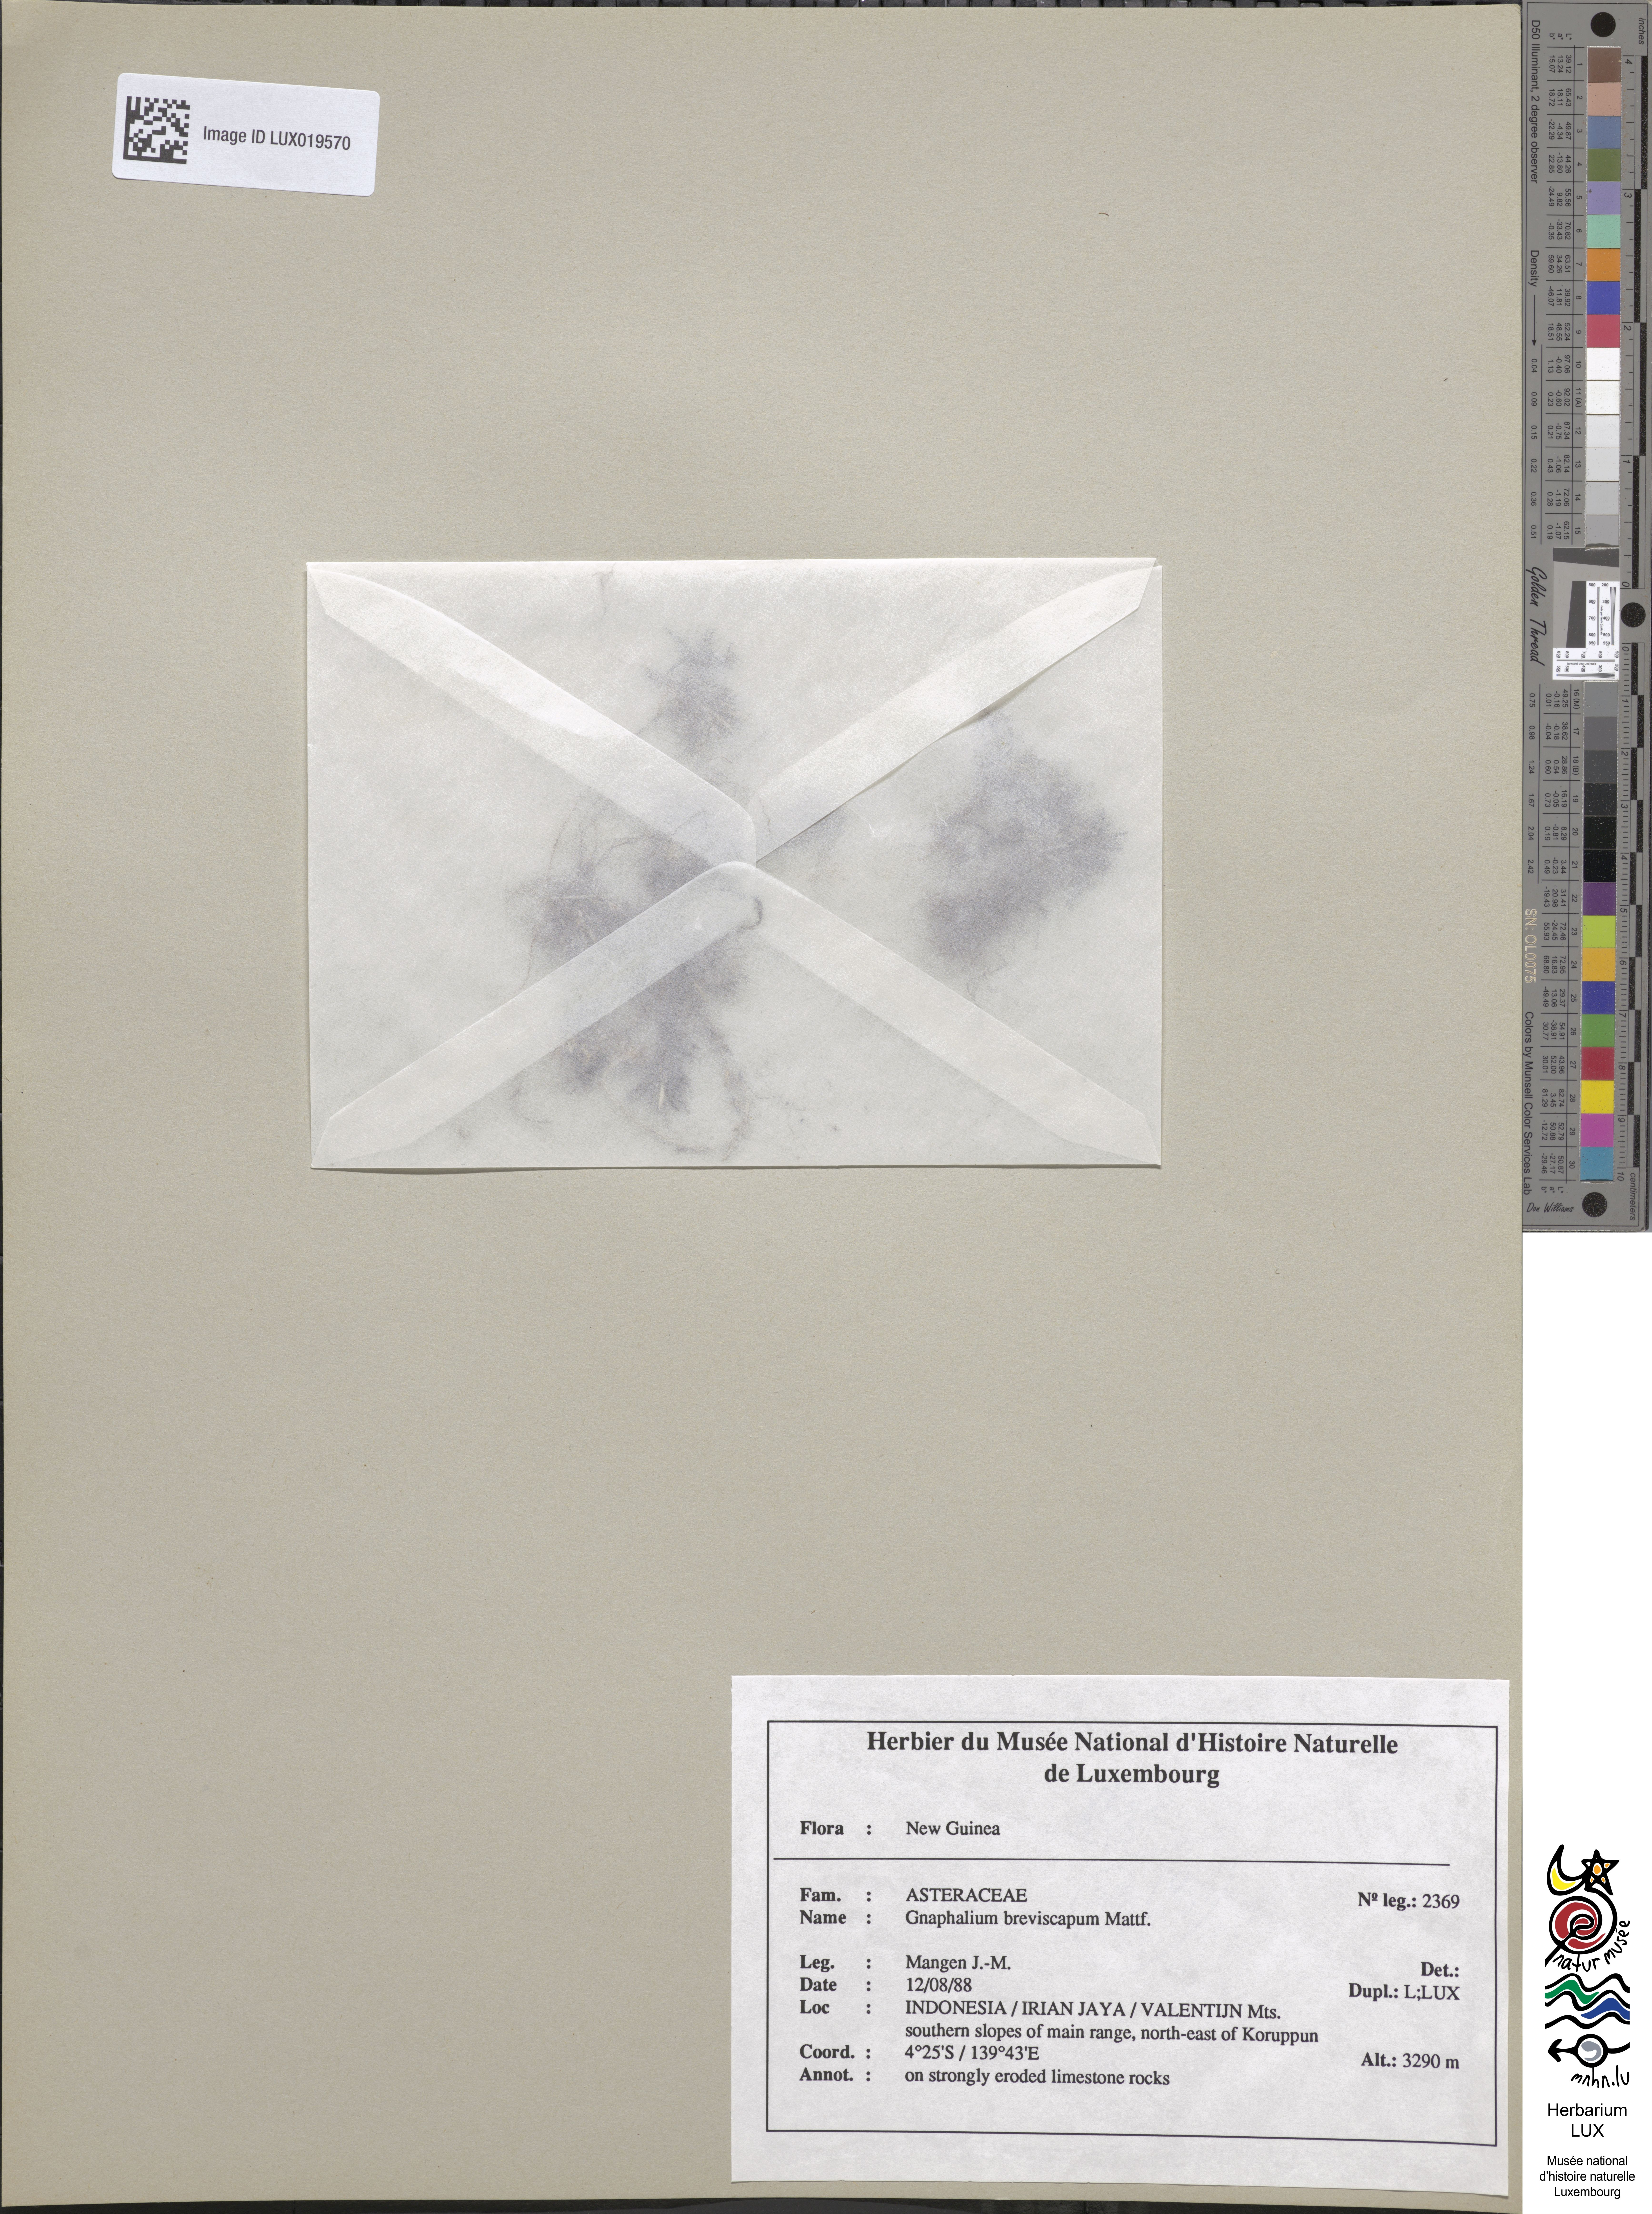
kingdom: Plantae
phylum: Tracheophyta
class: Magnoliopsida
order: Asterales
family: Asteraceae
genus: Euchiton
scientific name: Euchiton breviscapus
